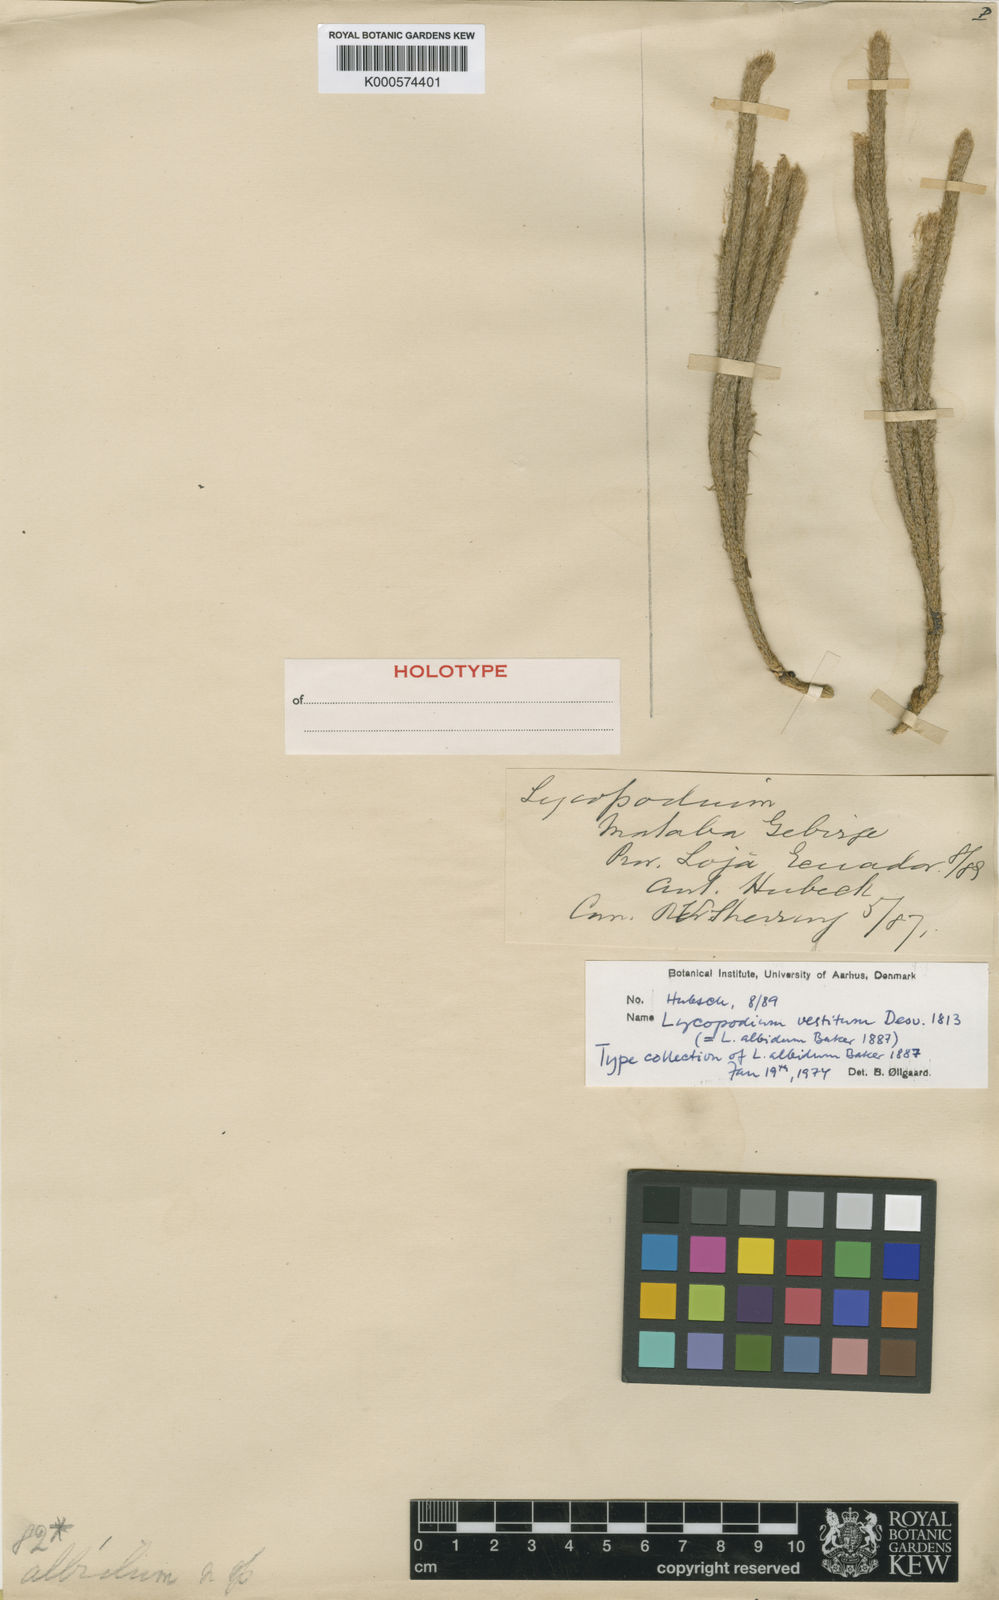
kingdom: Plantae
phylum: Tracheophyta
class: Lycopodiopsida
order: Selaginellales
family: Selaginellaceae
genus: Selaginella
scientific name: Selaginella muscosa
